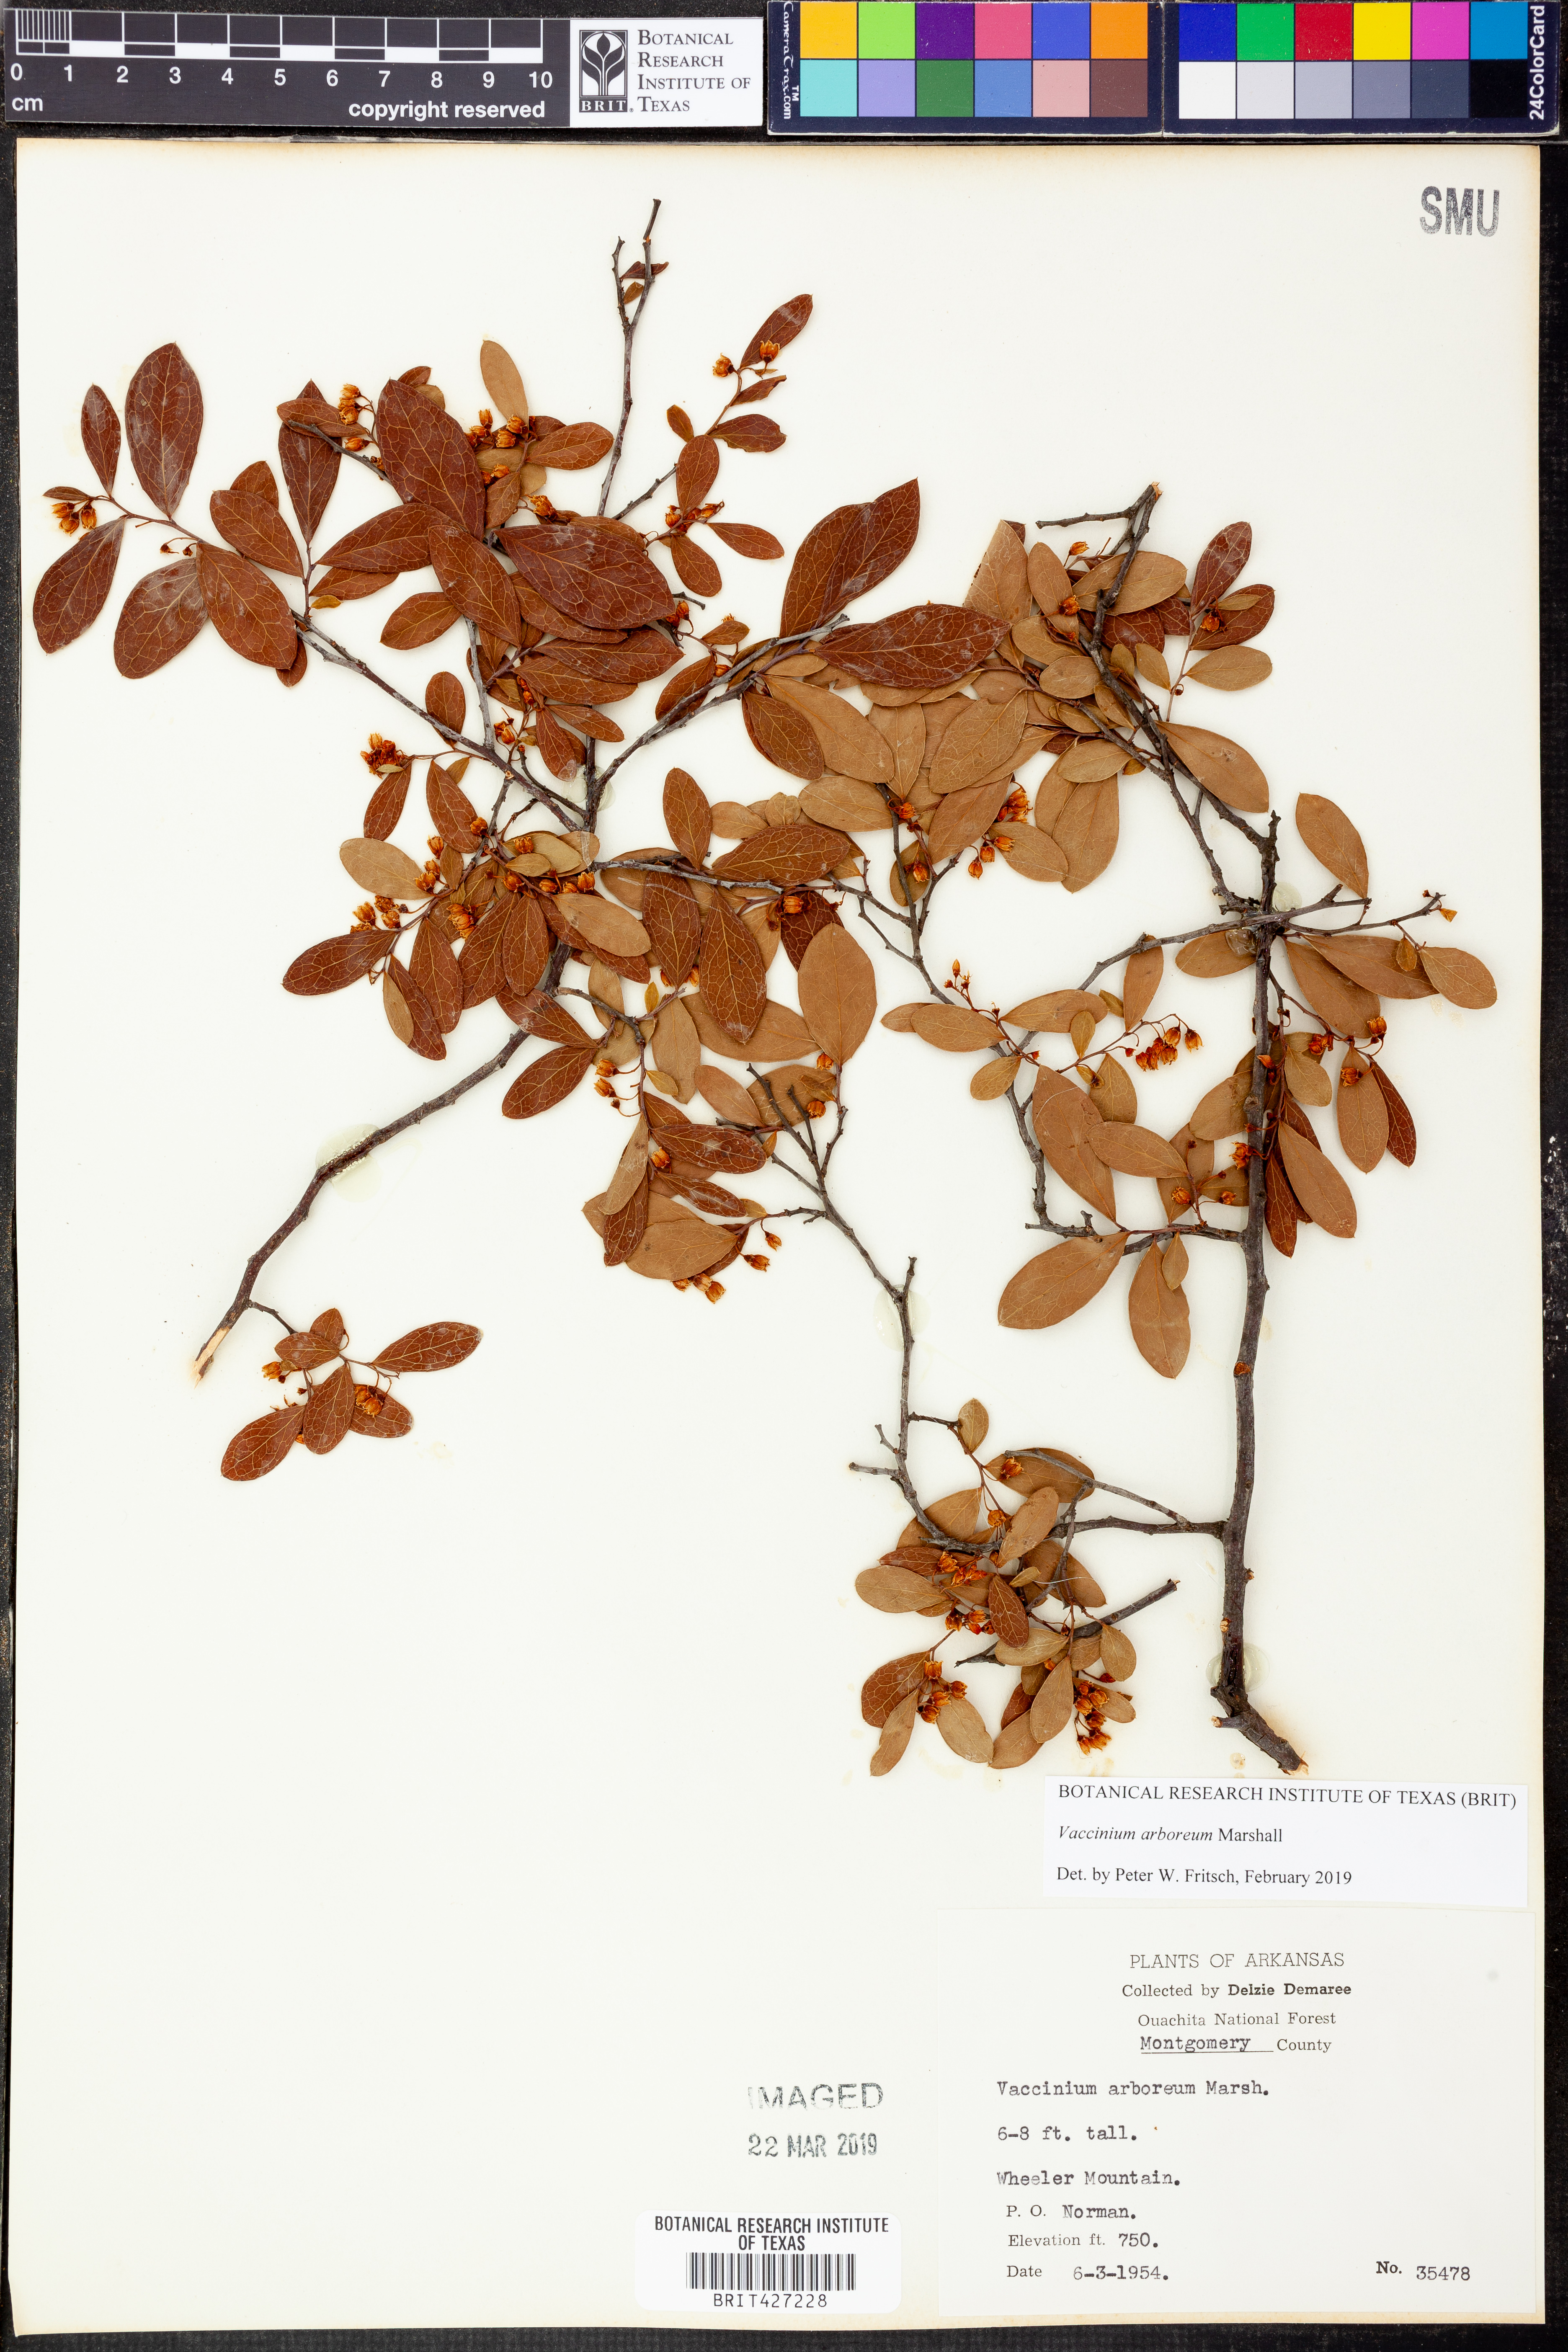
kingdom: Plantae
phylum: Tracheophyta
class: Magnoliopsida
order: Ericales
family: Ericaceae
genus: Vaccinium
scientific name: Vaccinium arboreum
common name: Farkleberry
